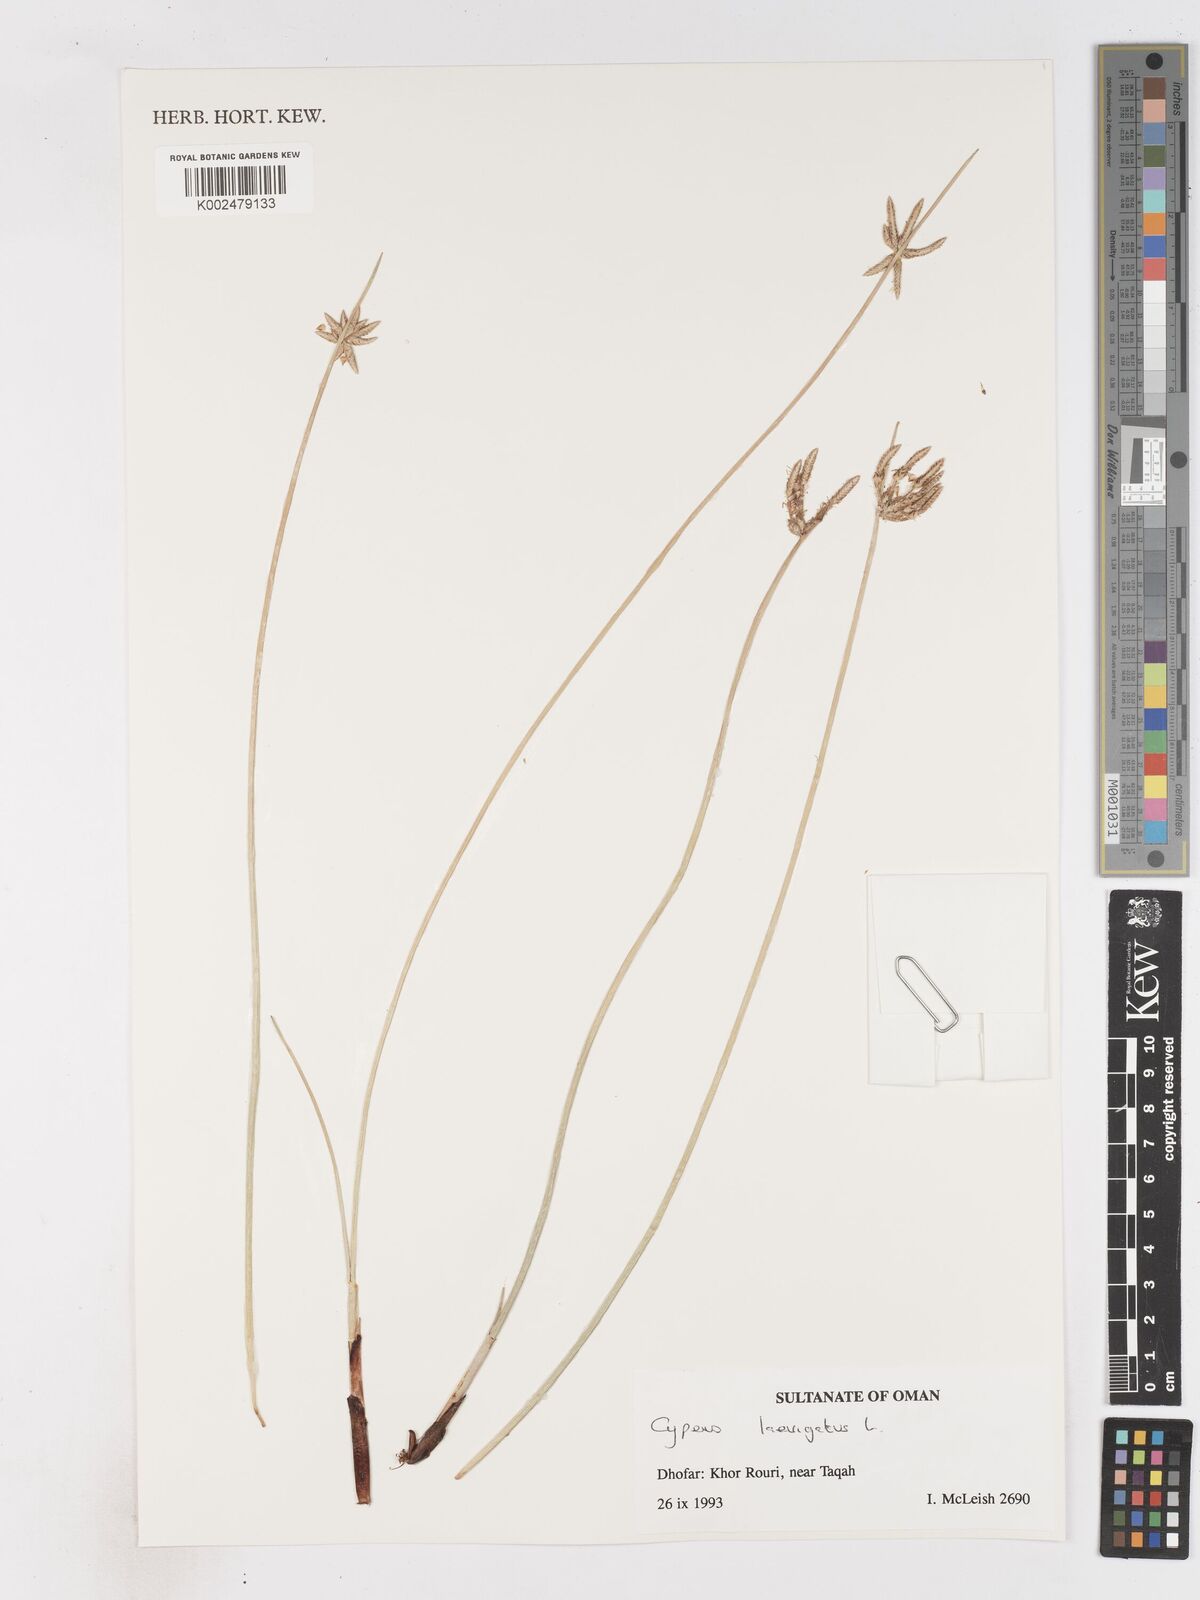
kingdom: Plantae
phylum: Tracheophyta
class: Liliopsida
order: Poales
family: Cyperaceae
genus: Cyperus
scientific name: Cyperus laevigatus
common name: Smooth flat sedge
